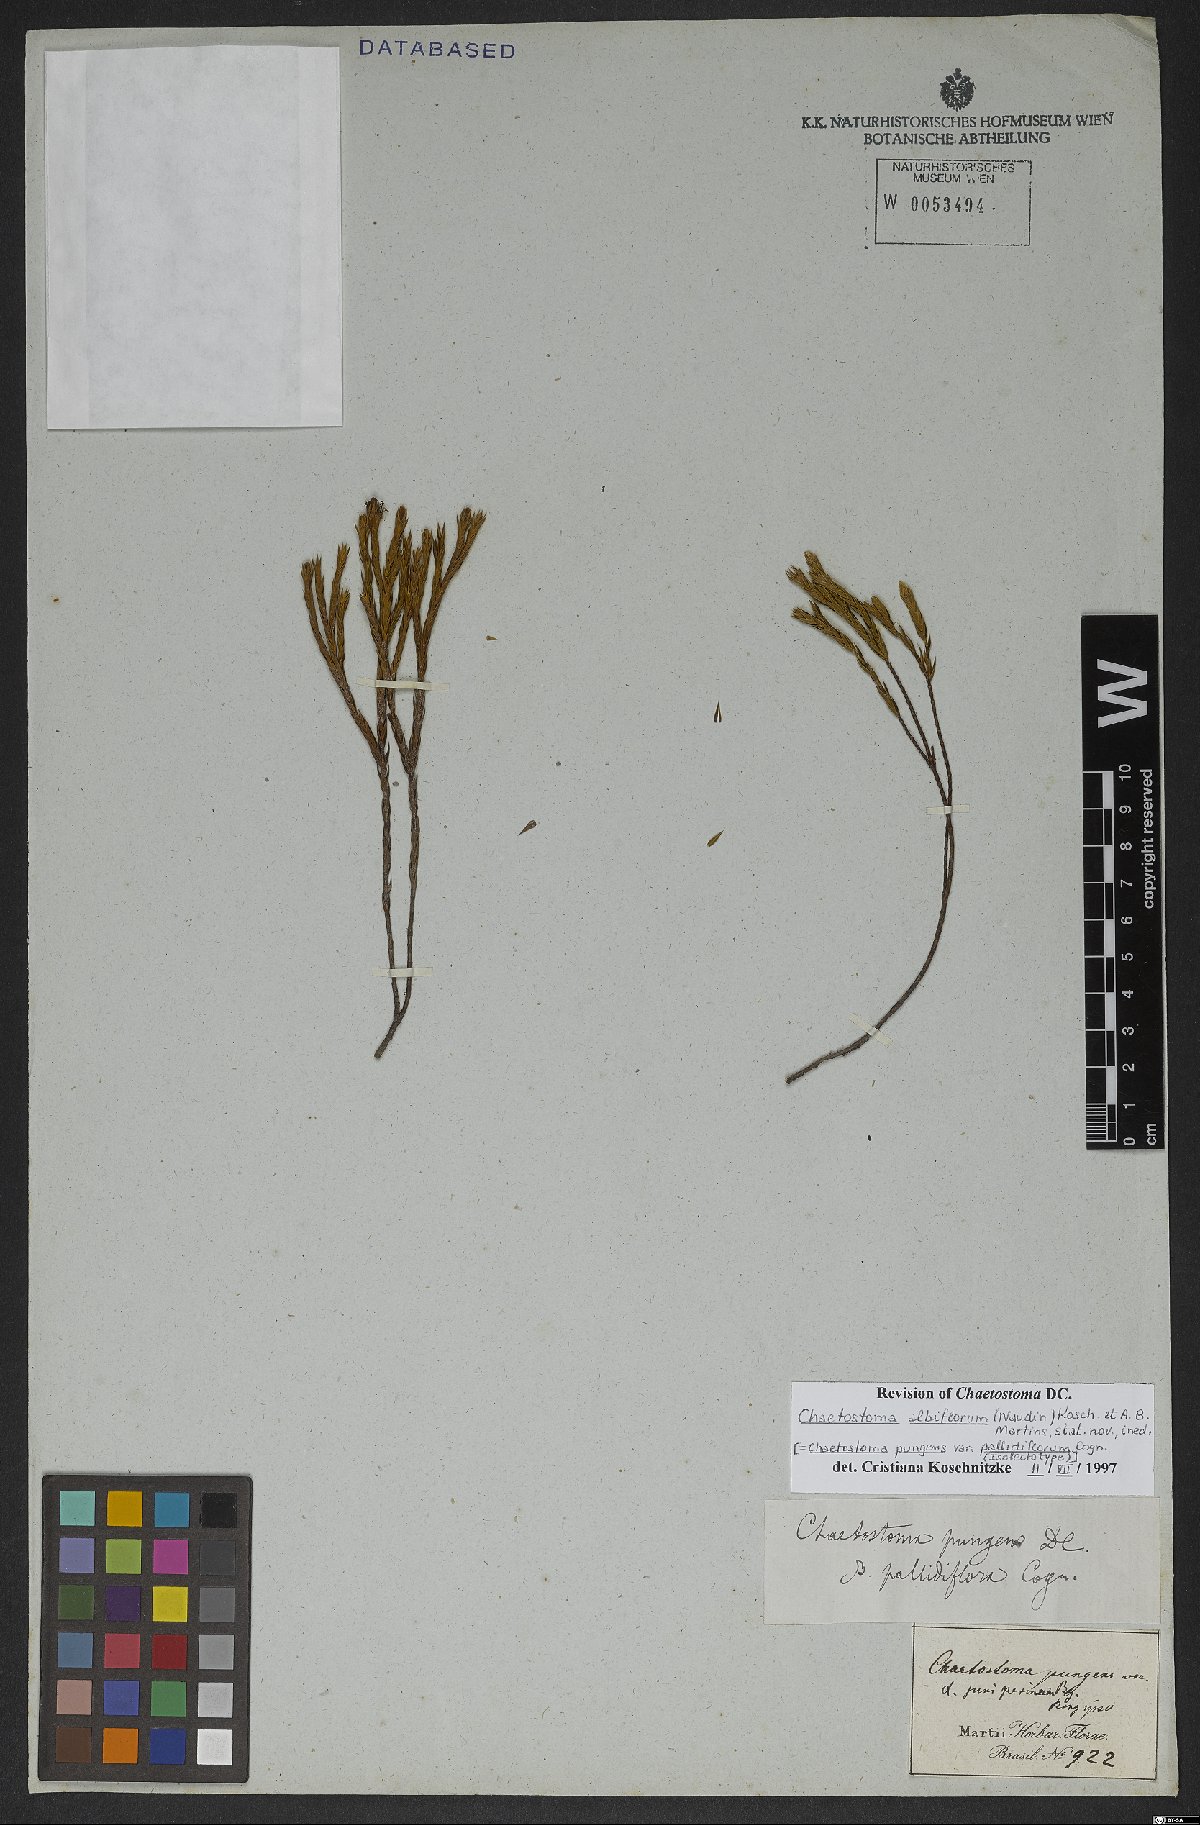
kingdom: Plantae
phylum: Tracheophyta
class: Magnoliopsida
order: Myrtales
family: Melastomataceae
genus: Microlicia
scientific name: Microlicia albiflora
